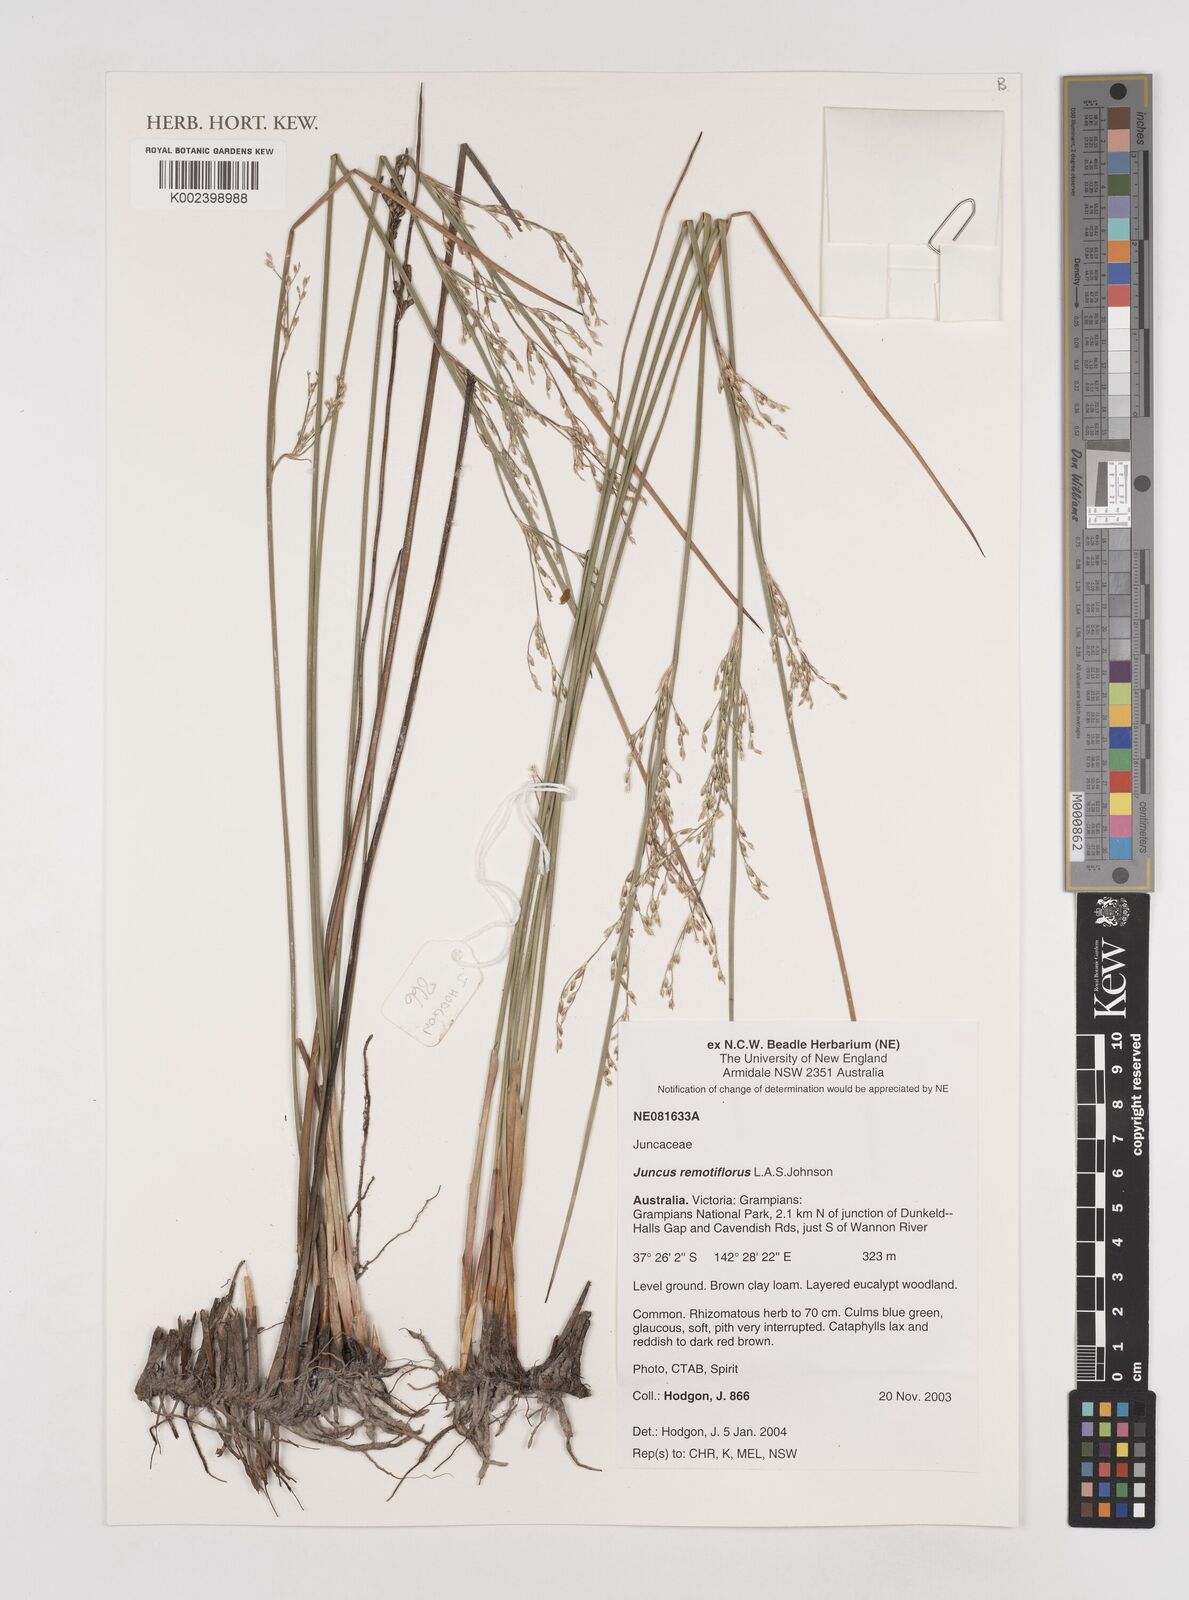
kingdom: Plantae
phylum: Tracheophyta
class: Liliopsida
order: Poales
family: Juncaceae
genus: Juncus
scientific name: Juncus remotiflorus
